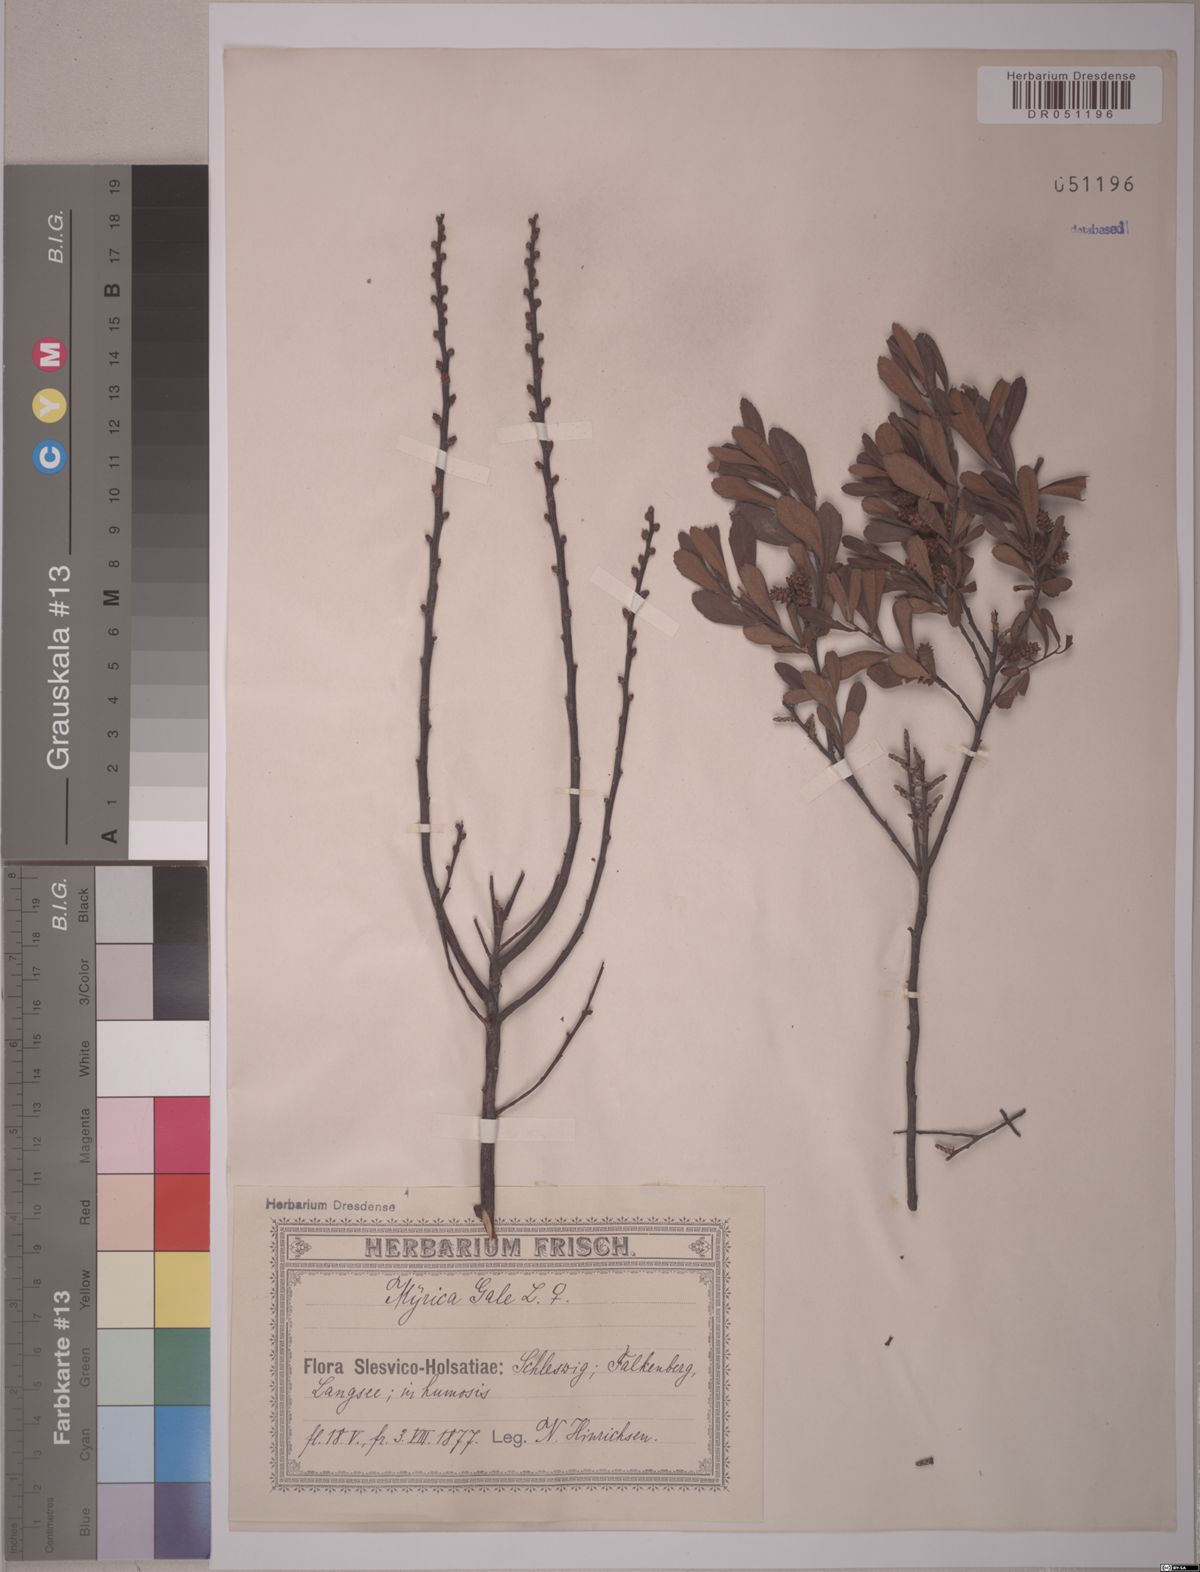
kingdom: Plantae
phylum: Tracheophyta
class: Magnoliopsida
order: Fagales
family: Myricaceae
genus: Myrica
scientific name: Myrica gale
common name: Sweet gale
